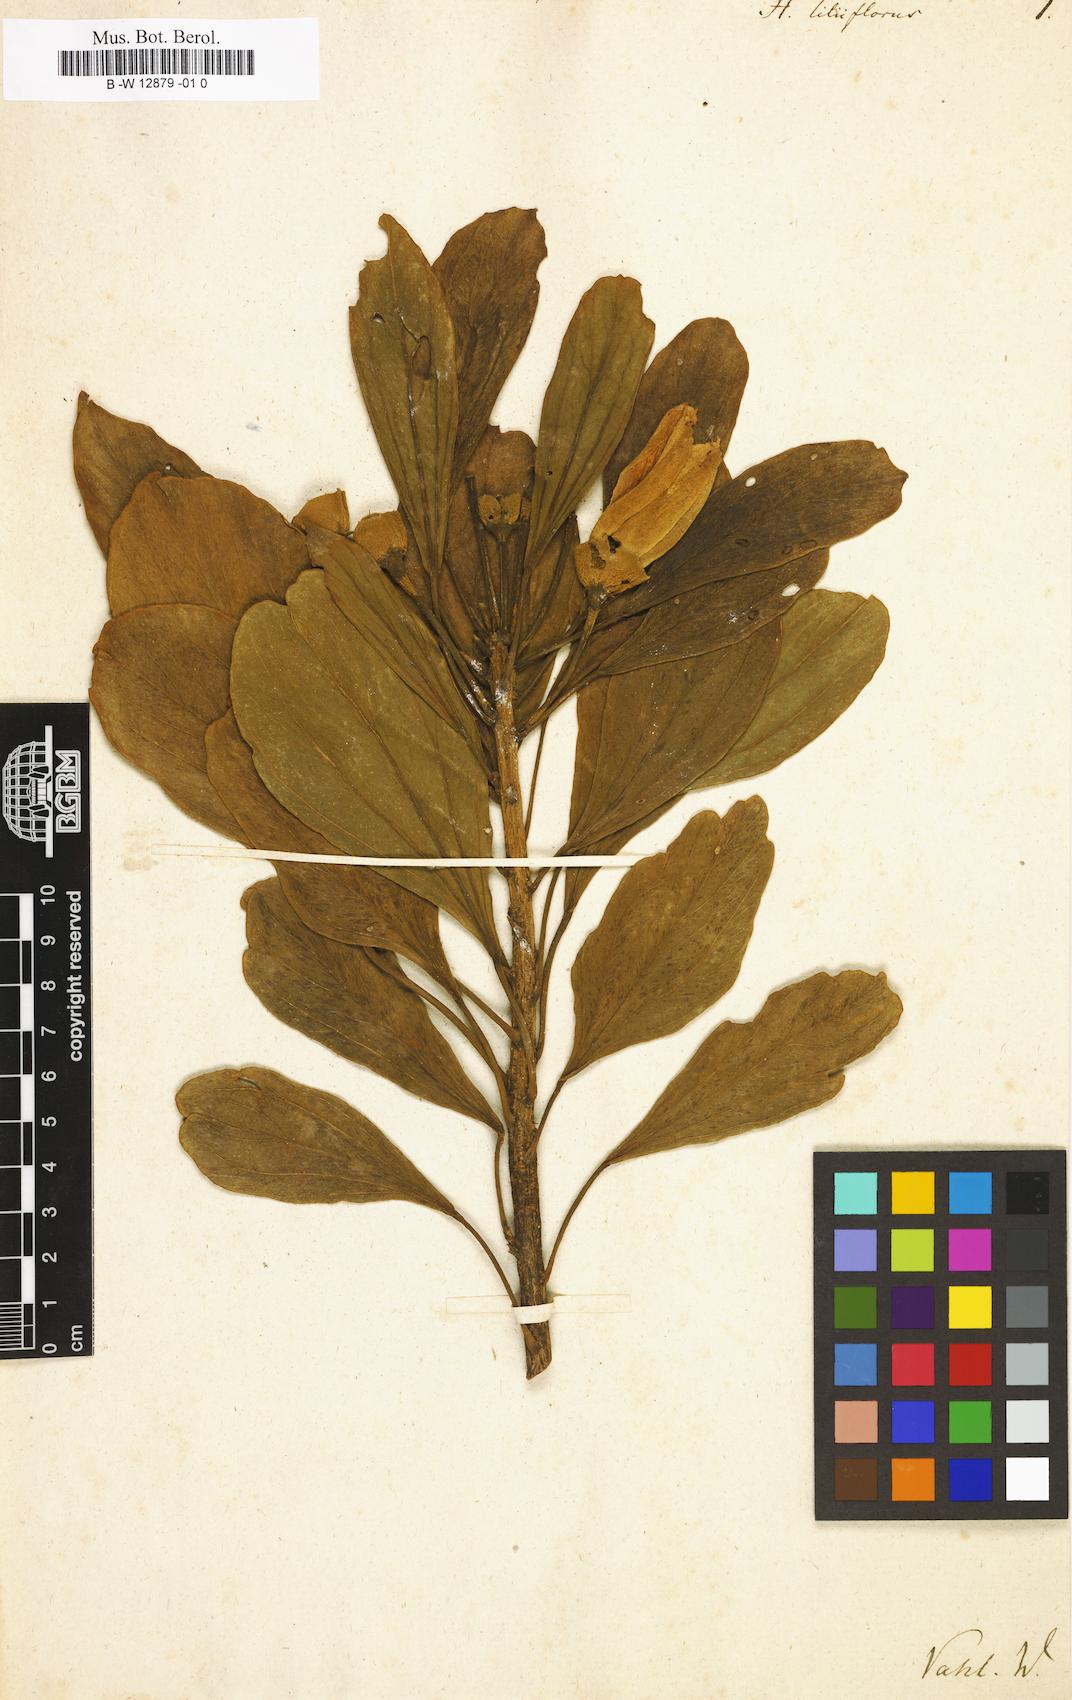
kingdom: Plantae
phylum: Tracheophyta
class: Magnoliopsida
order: Malvales
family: Malvaceae
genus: Hibiscus
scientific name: Hibiscus liliiflorus
